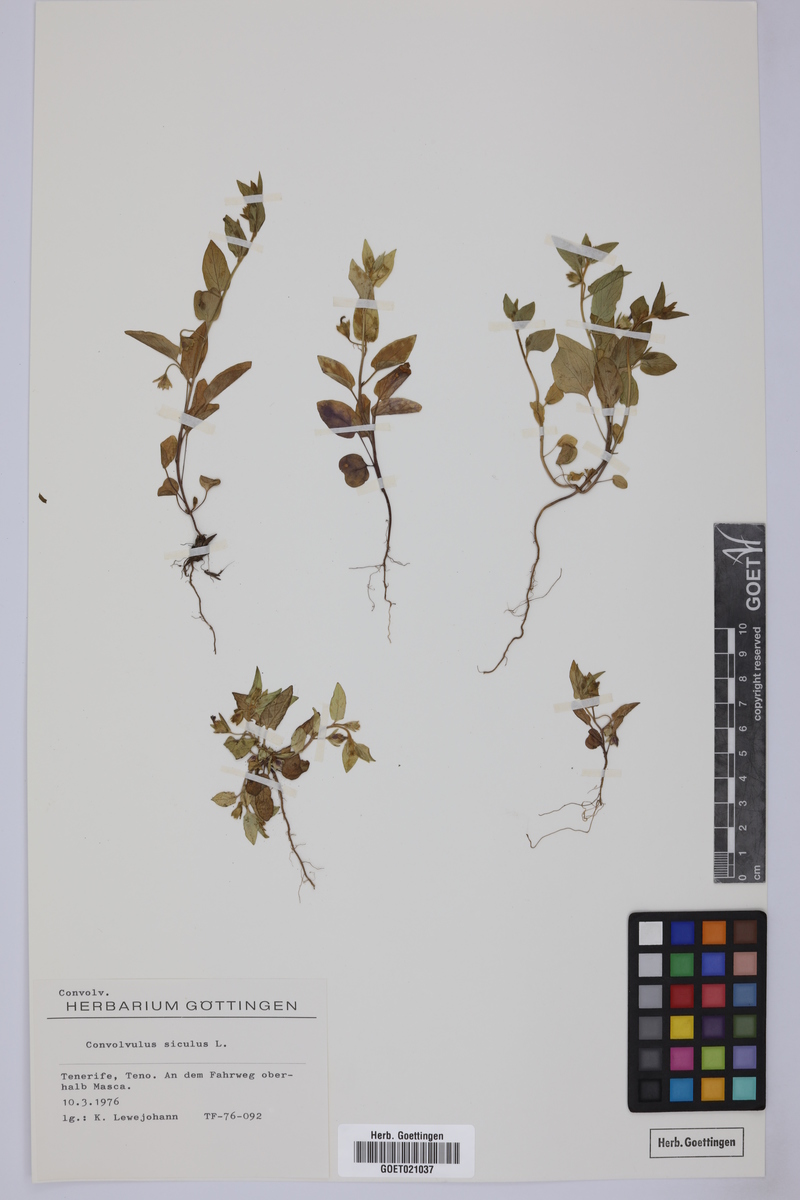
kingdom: Plantae
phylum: Tracheophyta
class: Magnoliopsida
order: Solanales
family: Convolvulaceae
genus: Convolvulus
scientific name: Convolvulus siculus
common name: Small blue-convolvulus
